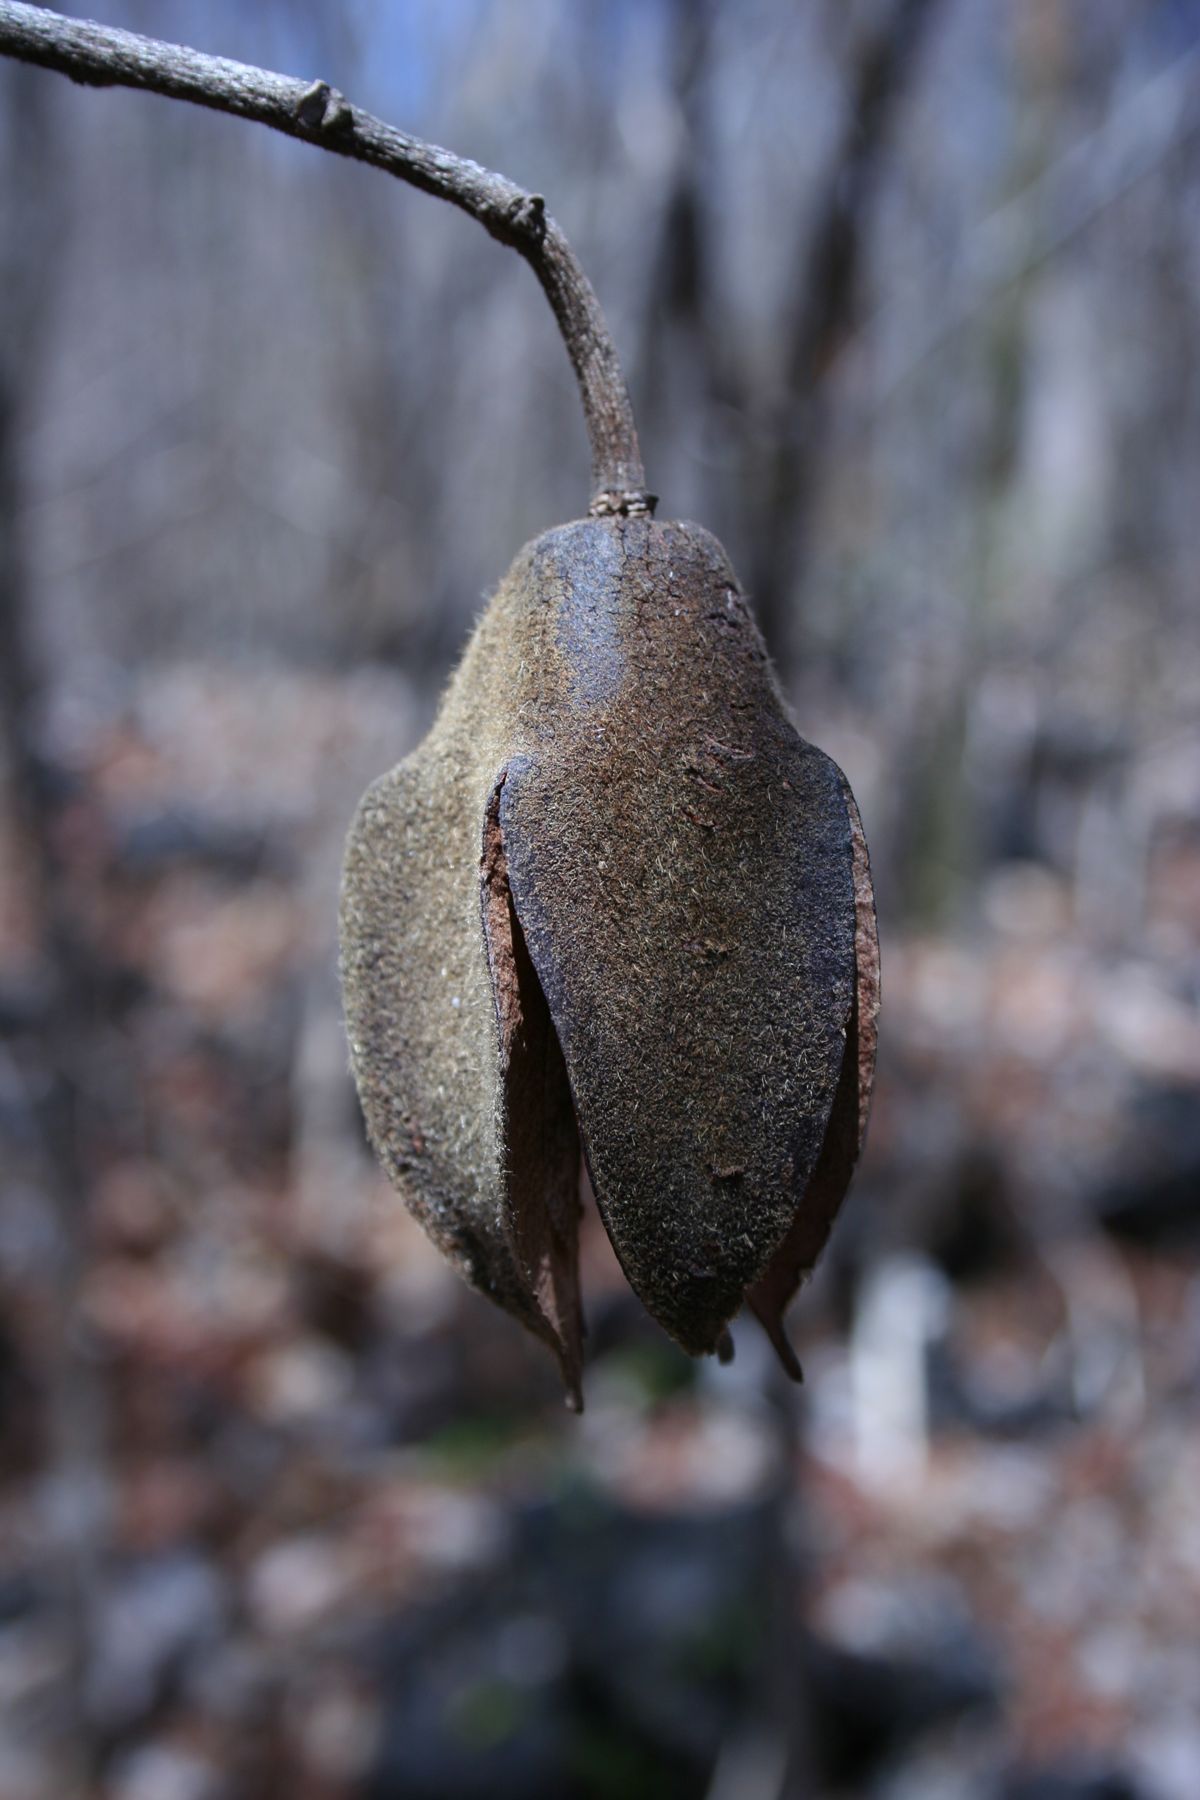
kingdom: Plantae
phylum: Tracheophyta
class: Magnoliopsida
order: Malvales
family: Malvaceae
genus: Luehea
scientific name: Luehea candida
